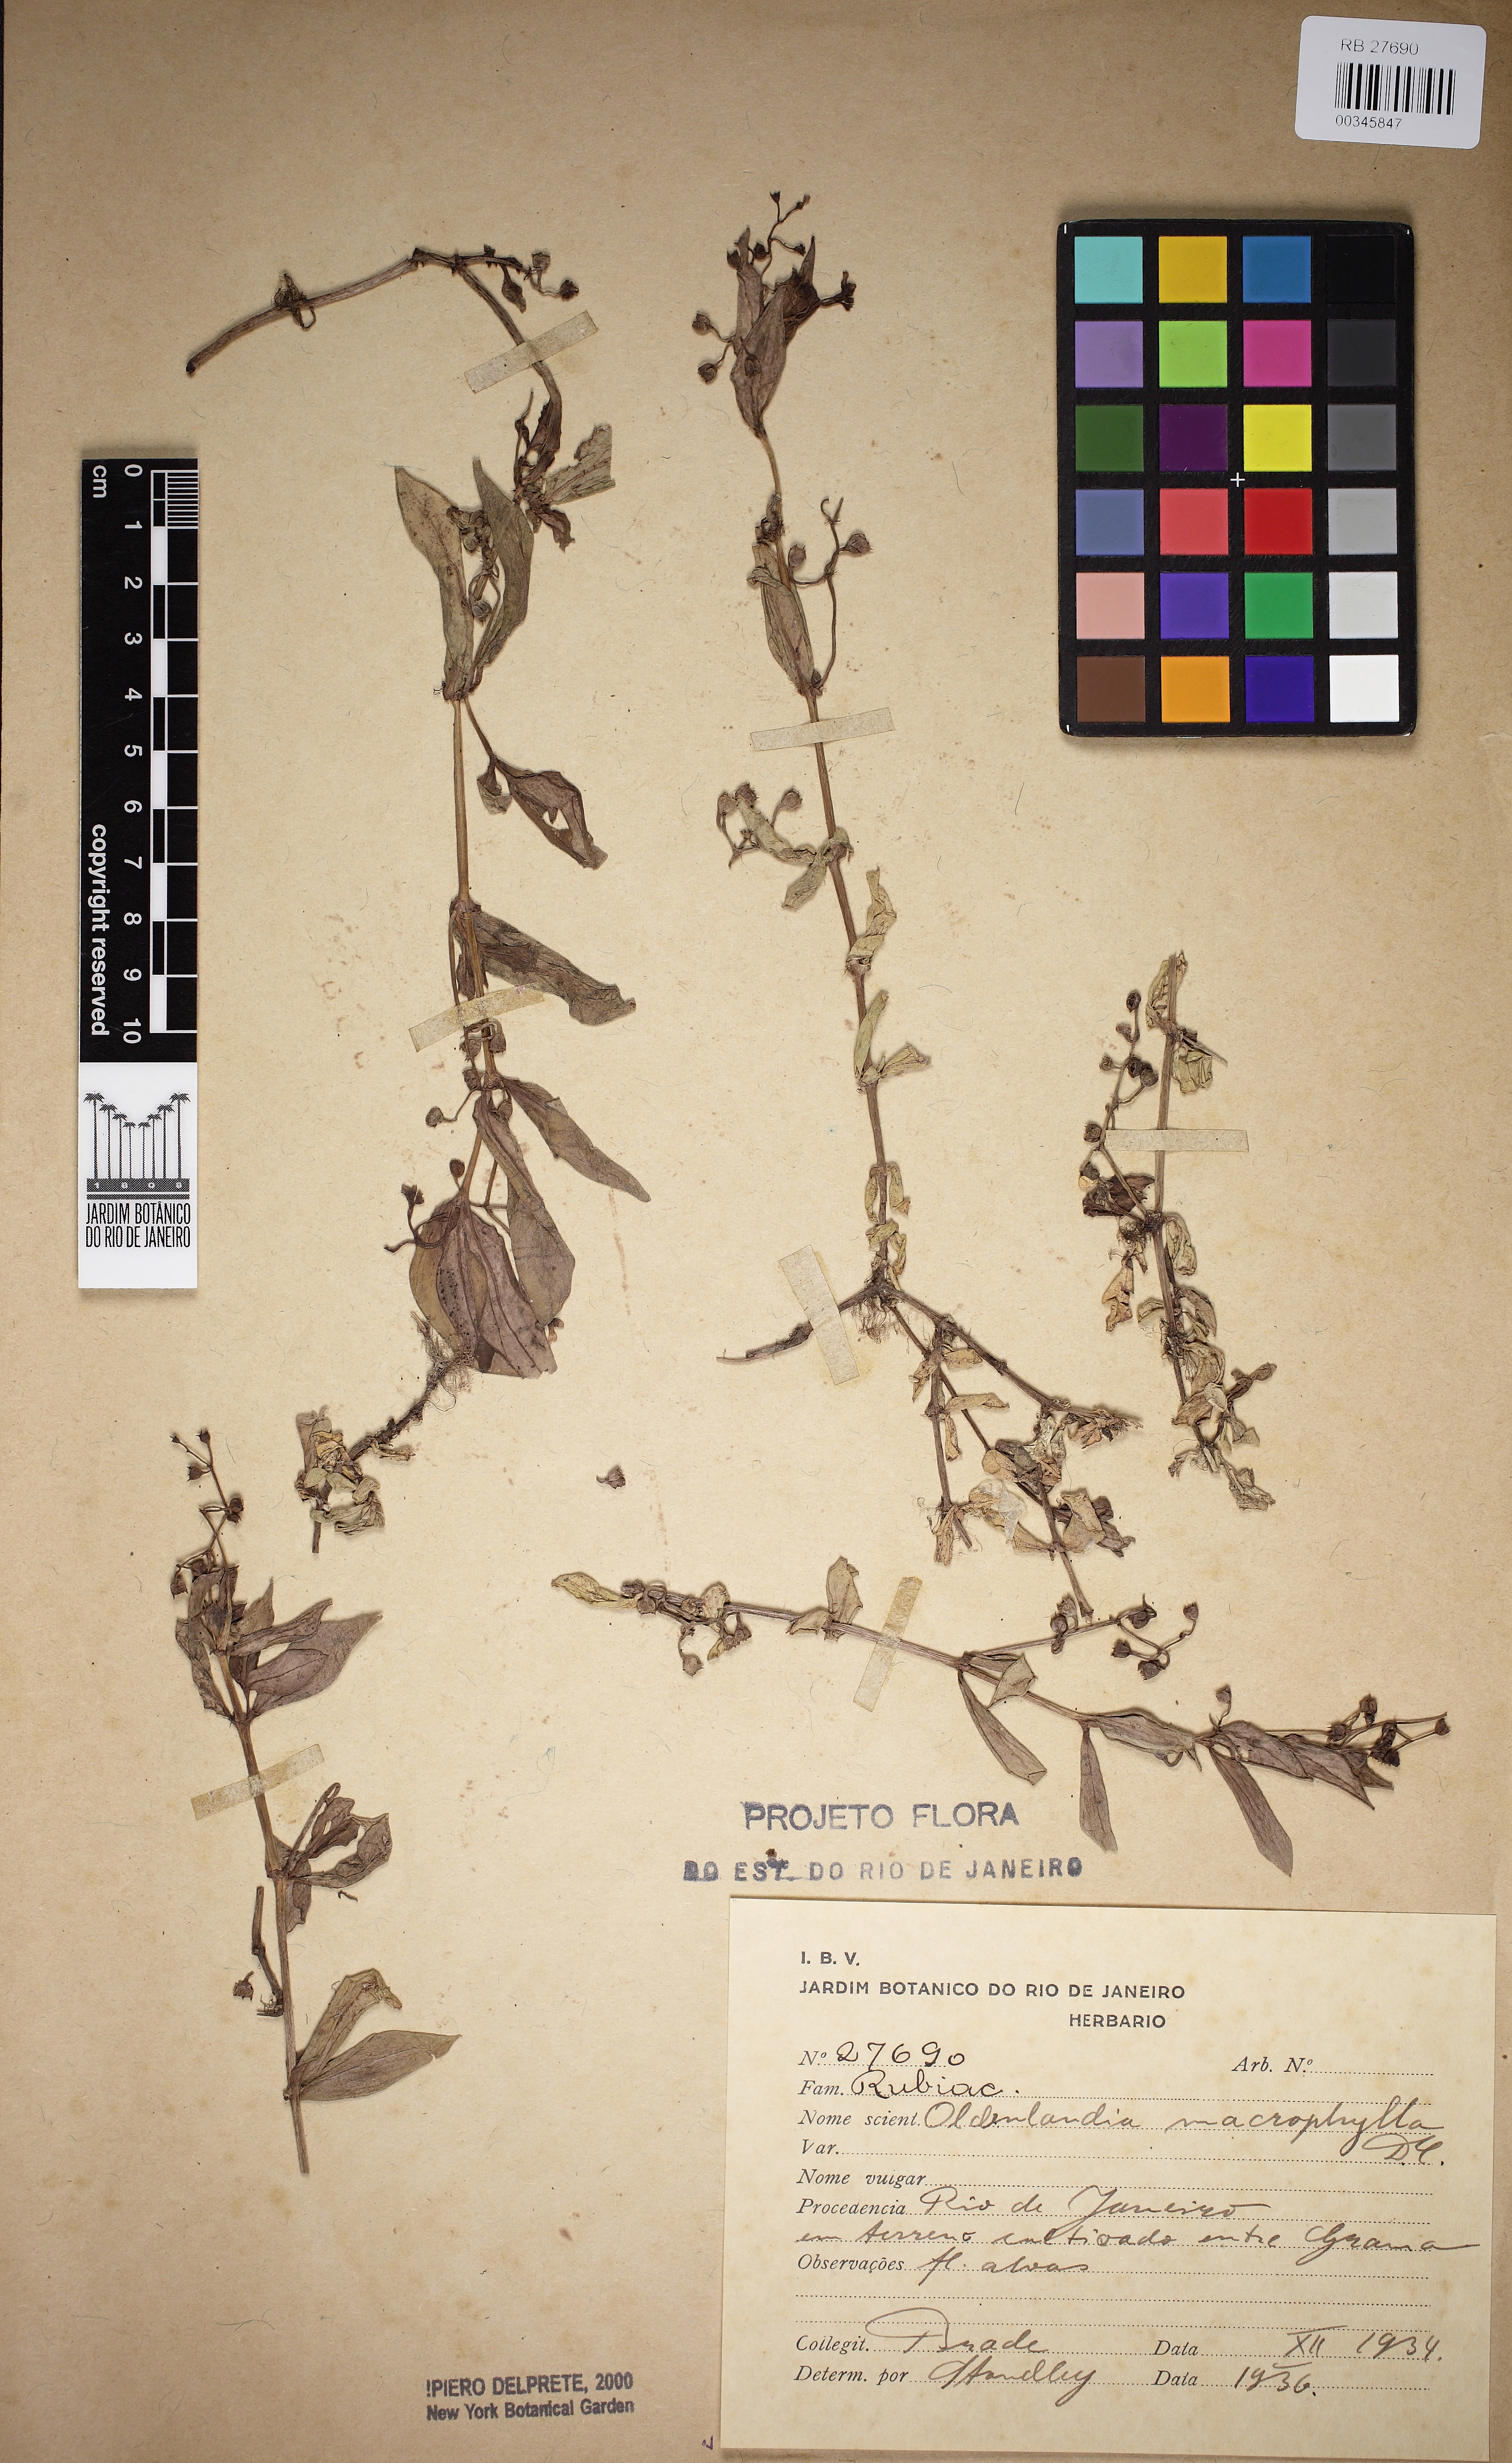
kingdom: Plantae
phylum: Tracheophyta
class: Magnoliopsida
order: Gentianales
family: Rubiaceae
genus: Pentodon
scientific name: Pentodon pentandrus
